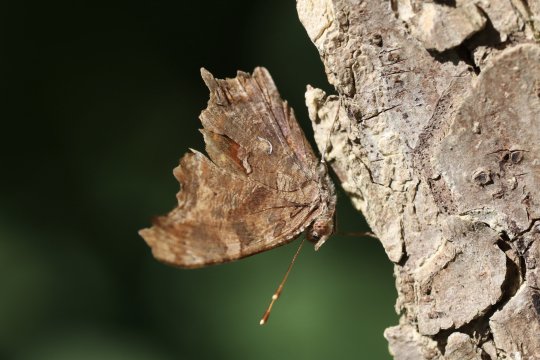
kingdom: Animalia
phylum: Arthropoda
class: Insecta
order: Lepidoptera
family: Nymphalidae
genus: Polygonia
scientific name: Polygonia comma
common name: Eastern Comma
